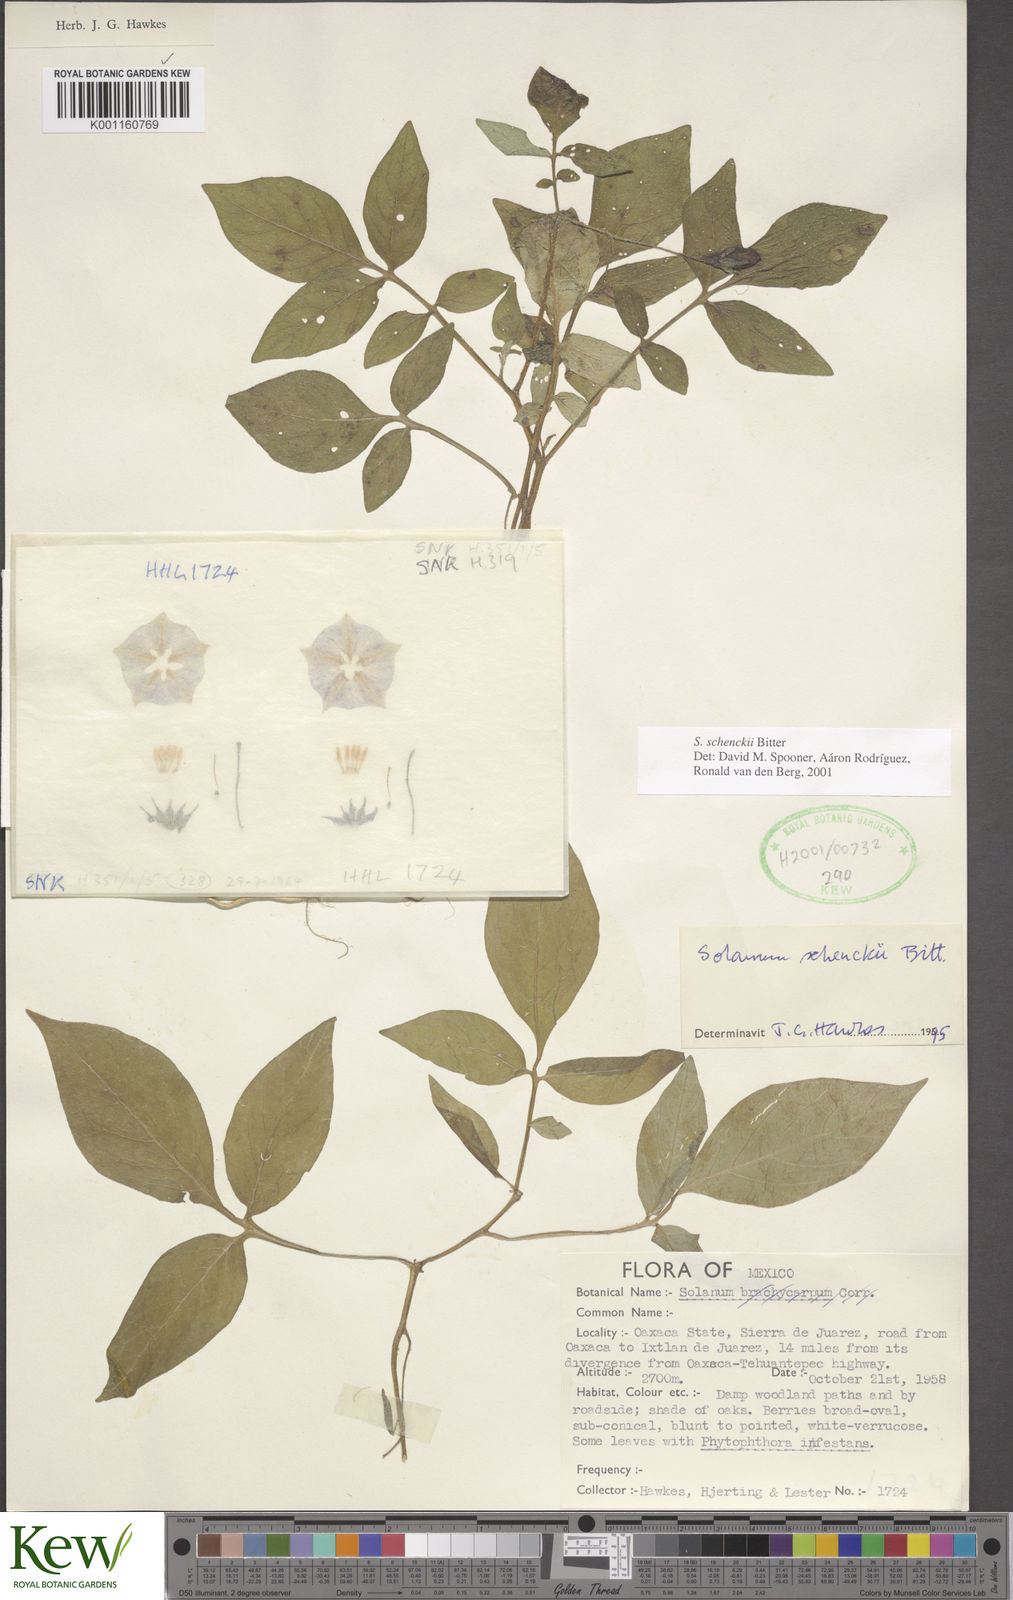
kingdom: Plantae
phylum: Tracheophyta
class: Magnoliopsida
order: Solanales
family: Solanaceae
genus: Solanum
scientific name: Solanum schenckii
